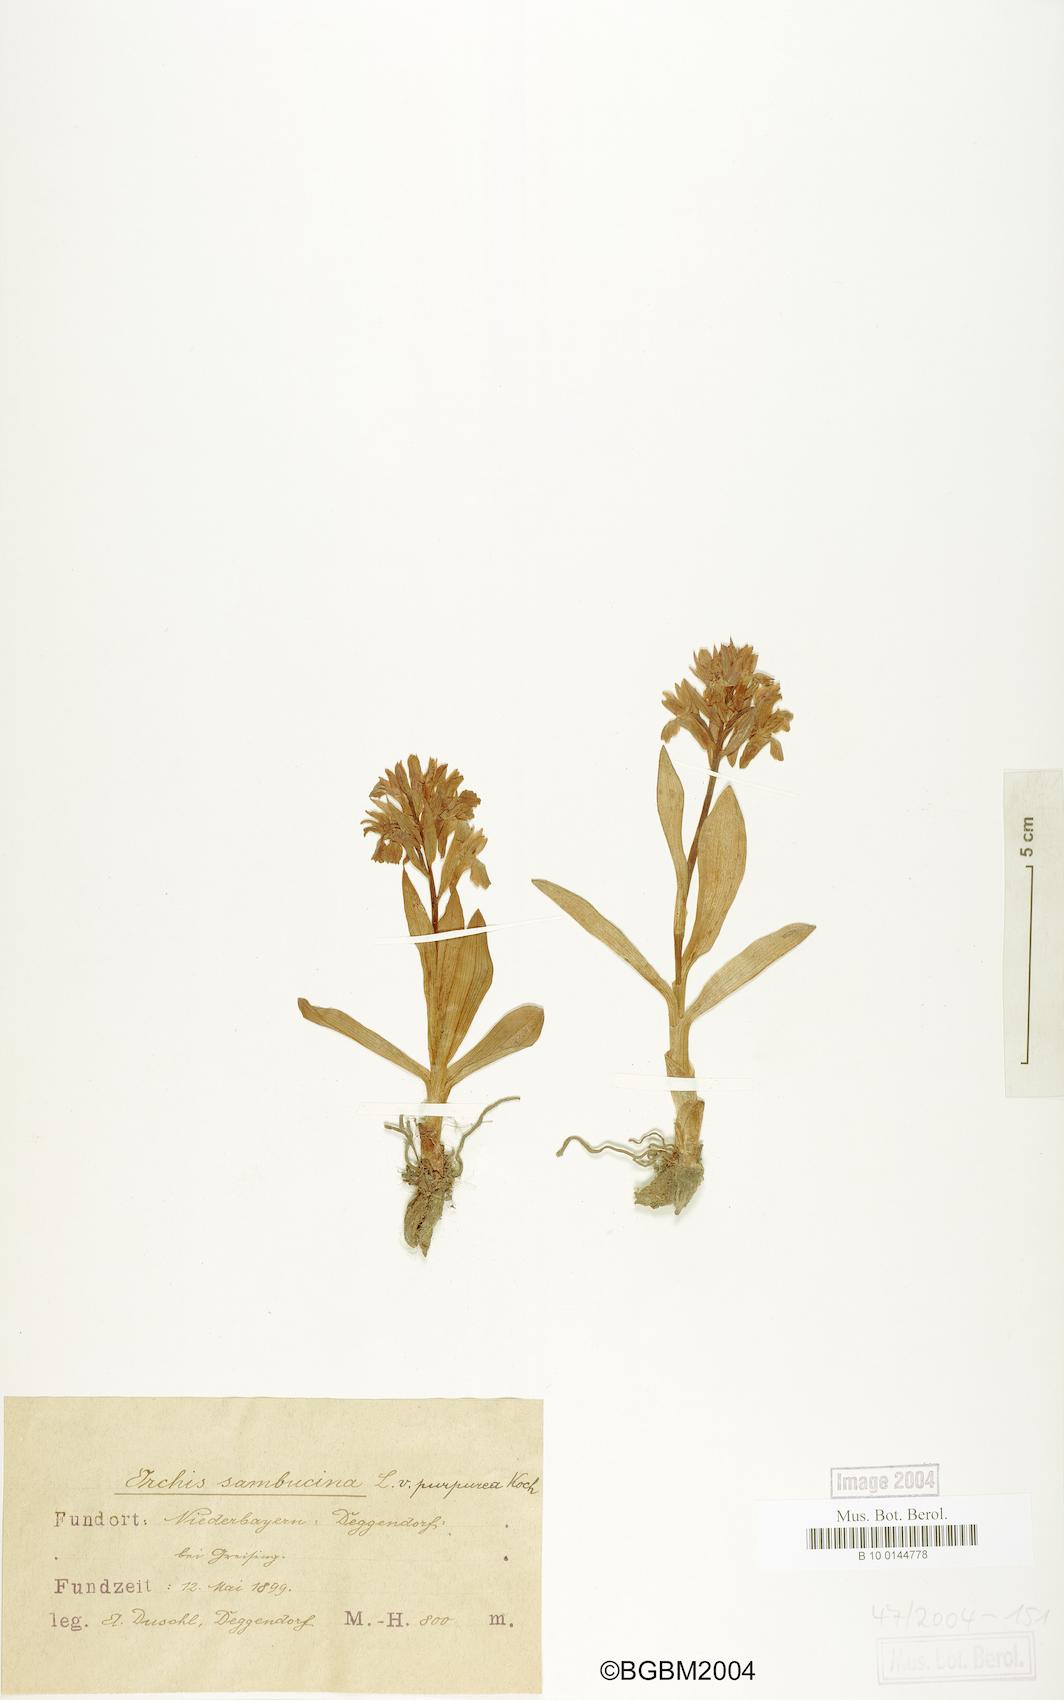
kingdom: Plantae
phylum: Tracheophyta
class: Liliopsida
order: Asparagales
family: Orchidaceae
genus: Dactylorhiza
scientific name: Dactylorhiza sambucina
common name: Elder-flowered orchid
